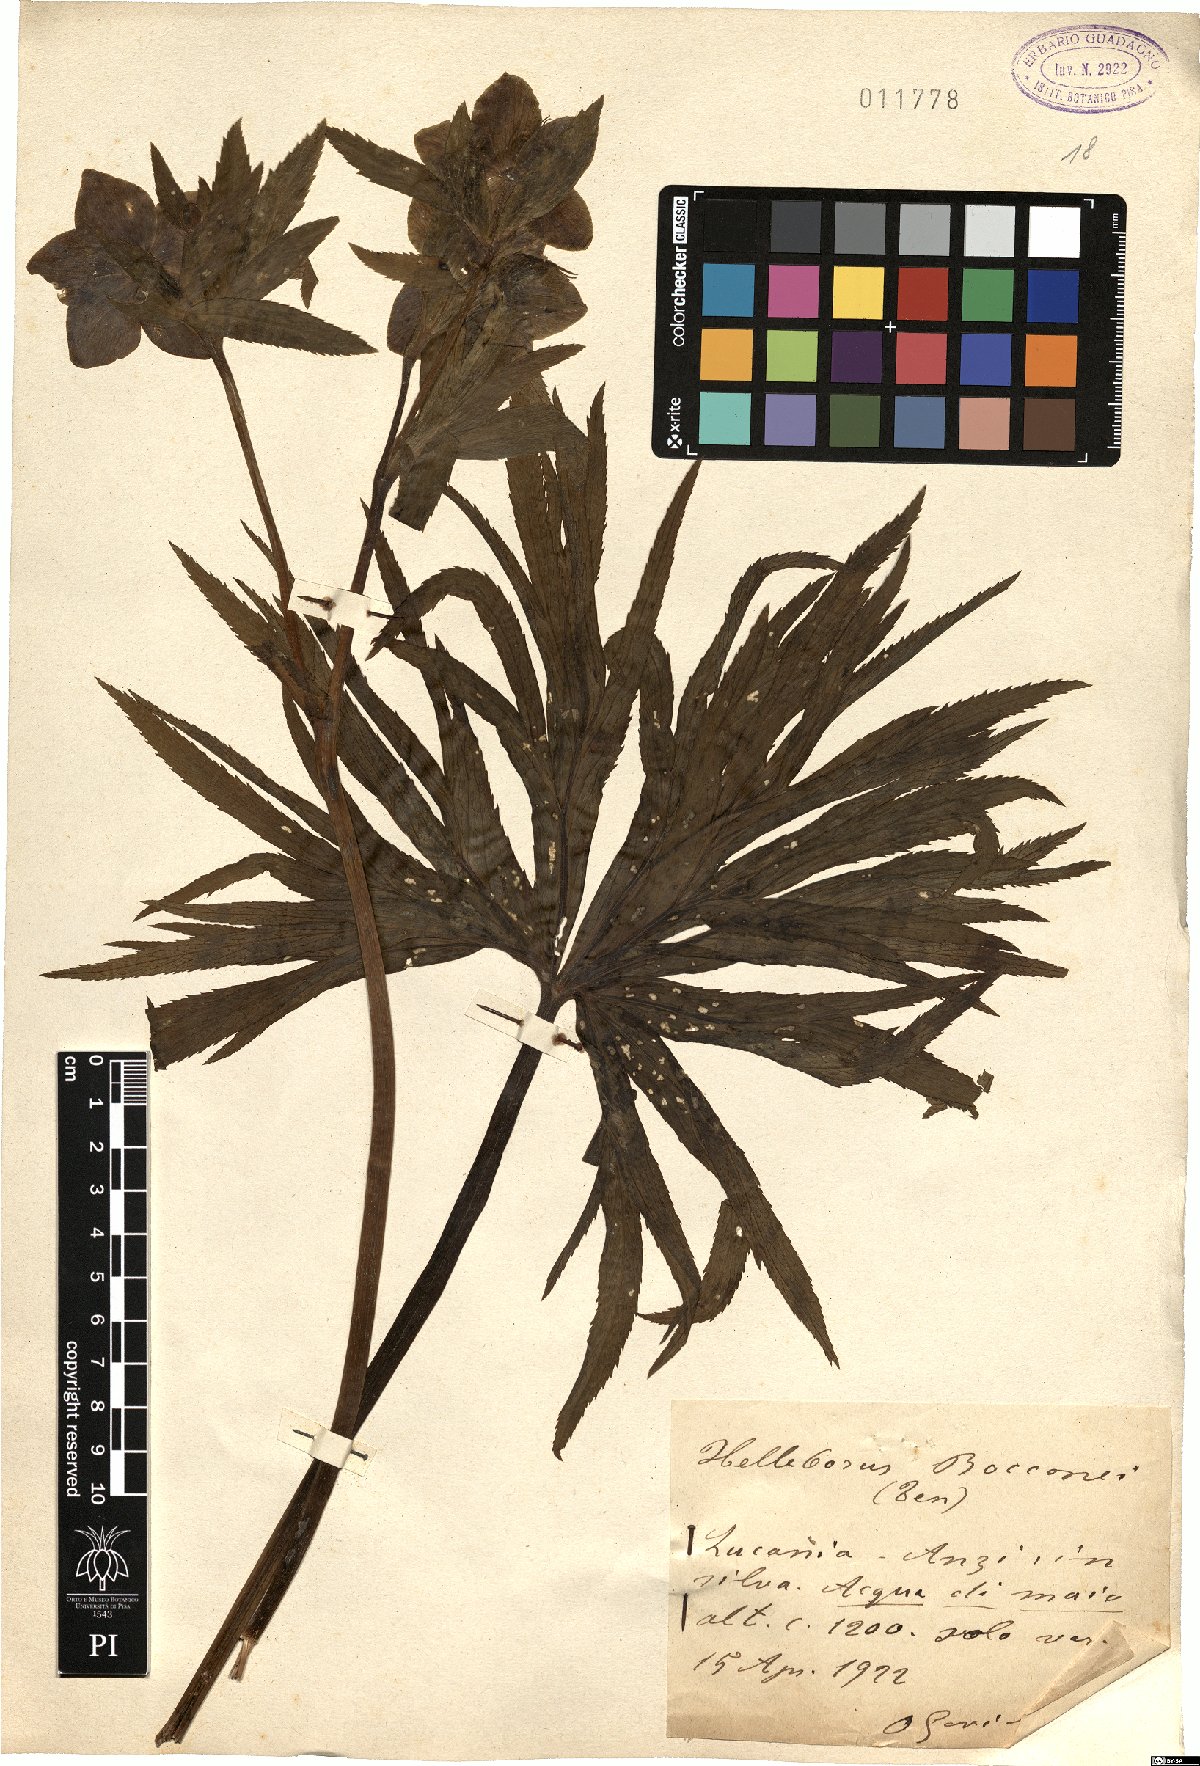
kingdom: Plantae
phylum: Tracheophyta
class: Magnoliopsida
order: Ranunculales
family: Ranunculaceae
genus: Helleborus
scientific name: Helleborus bocconei
